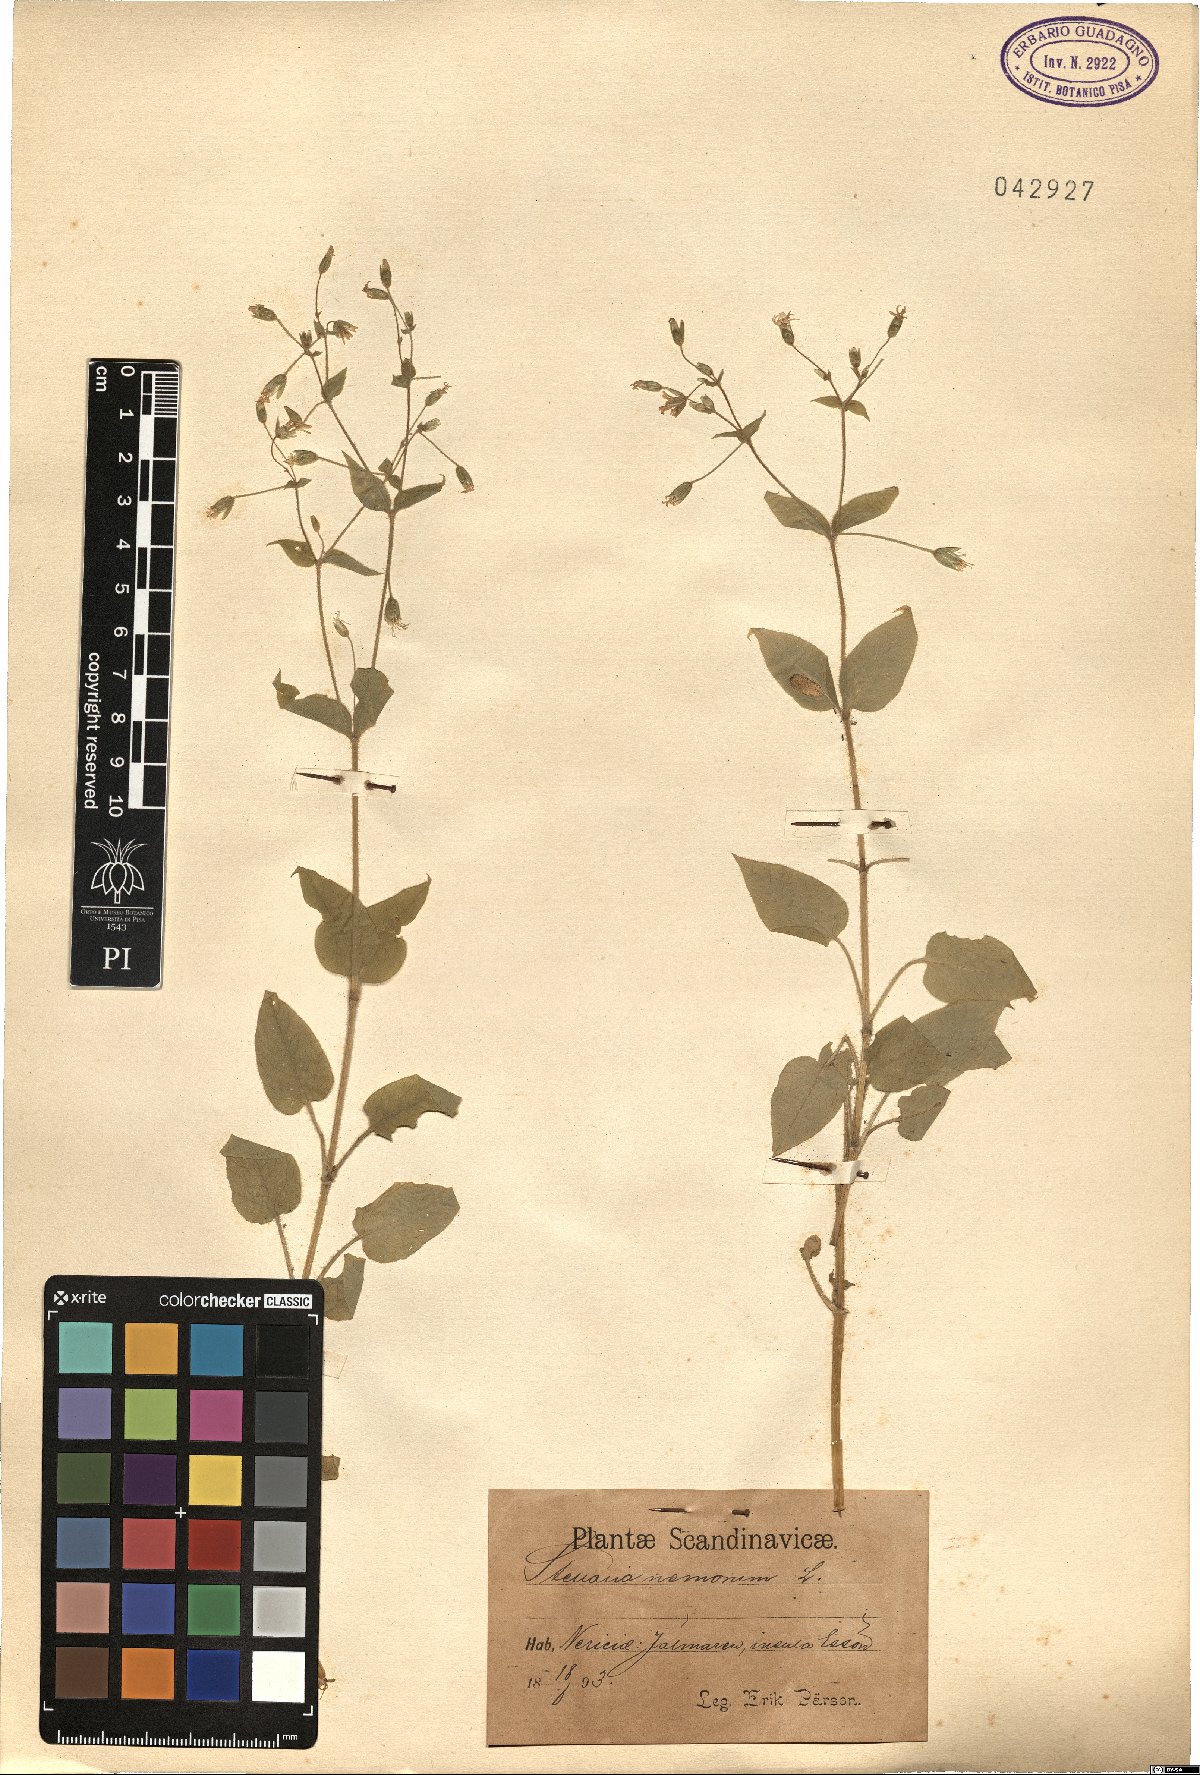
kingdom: Plantae
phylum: Tracheophyta
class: Magnoliopsida
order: Caryophyllales
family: Caryophyllaceae
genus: Stellaria
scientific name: Stellaria nemorum
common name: Wood stitchwort
